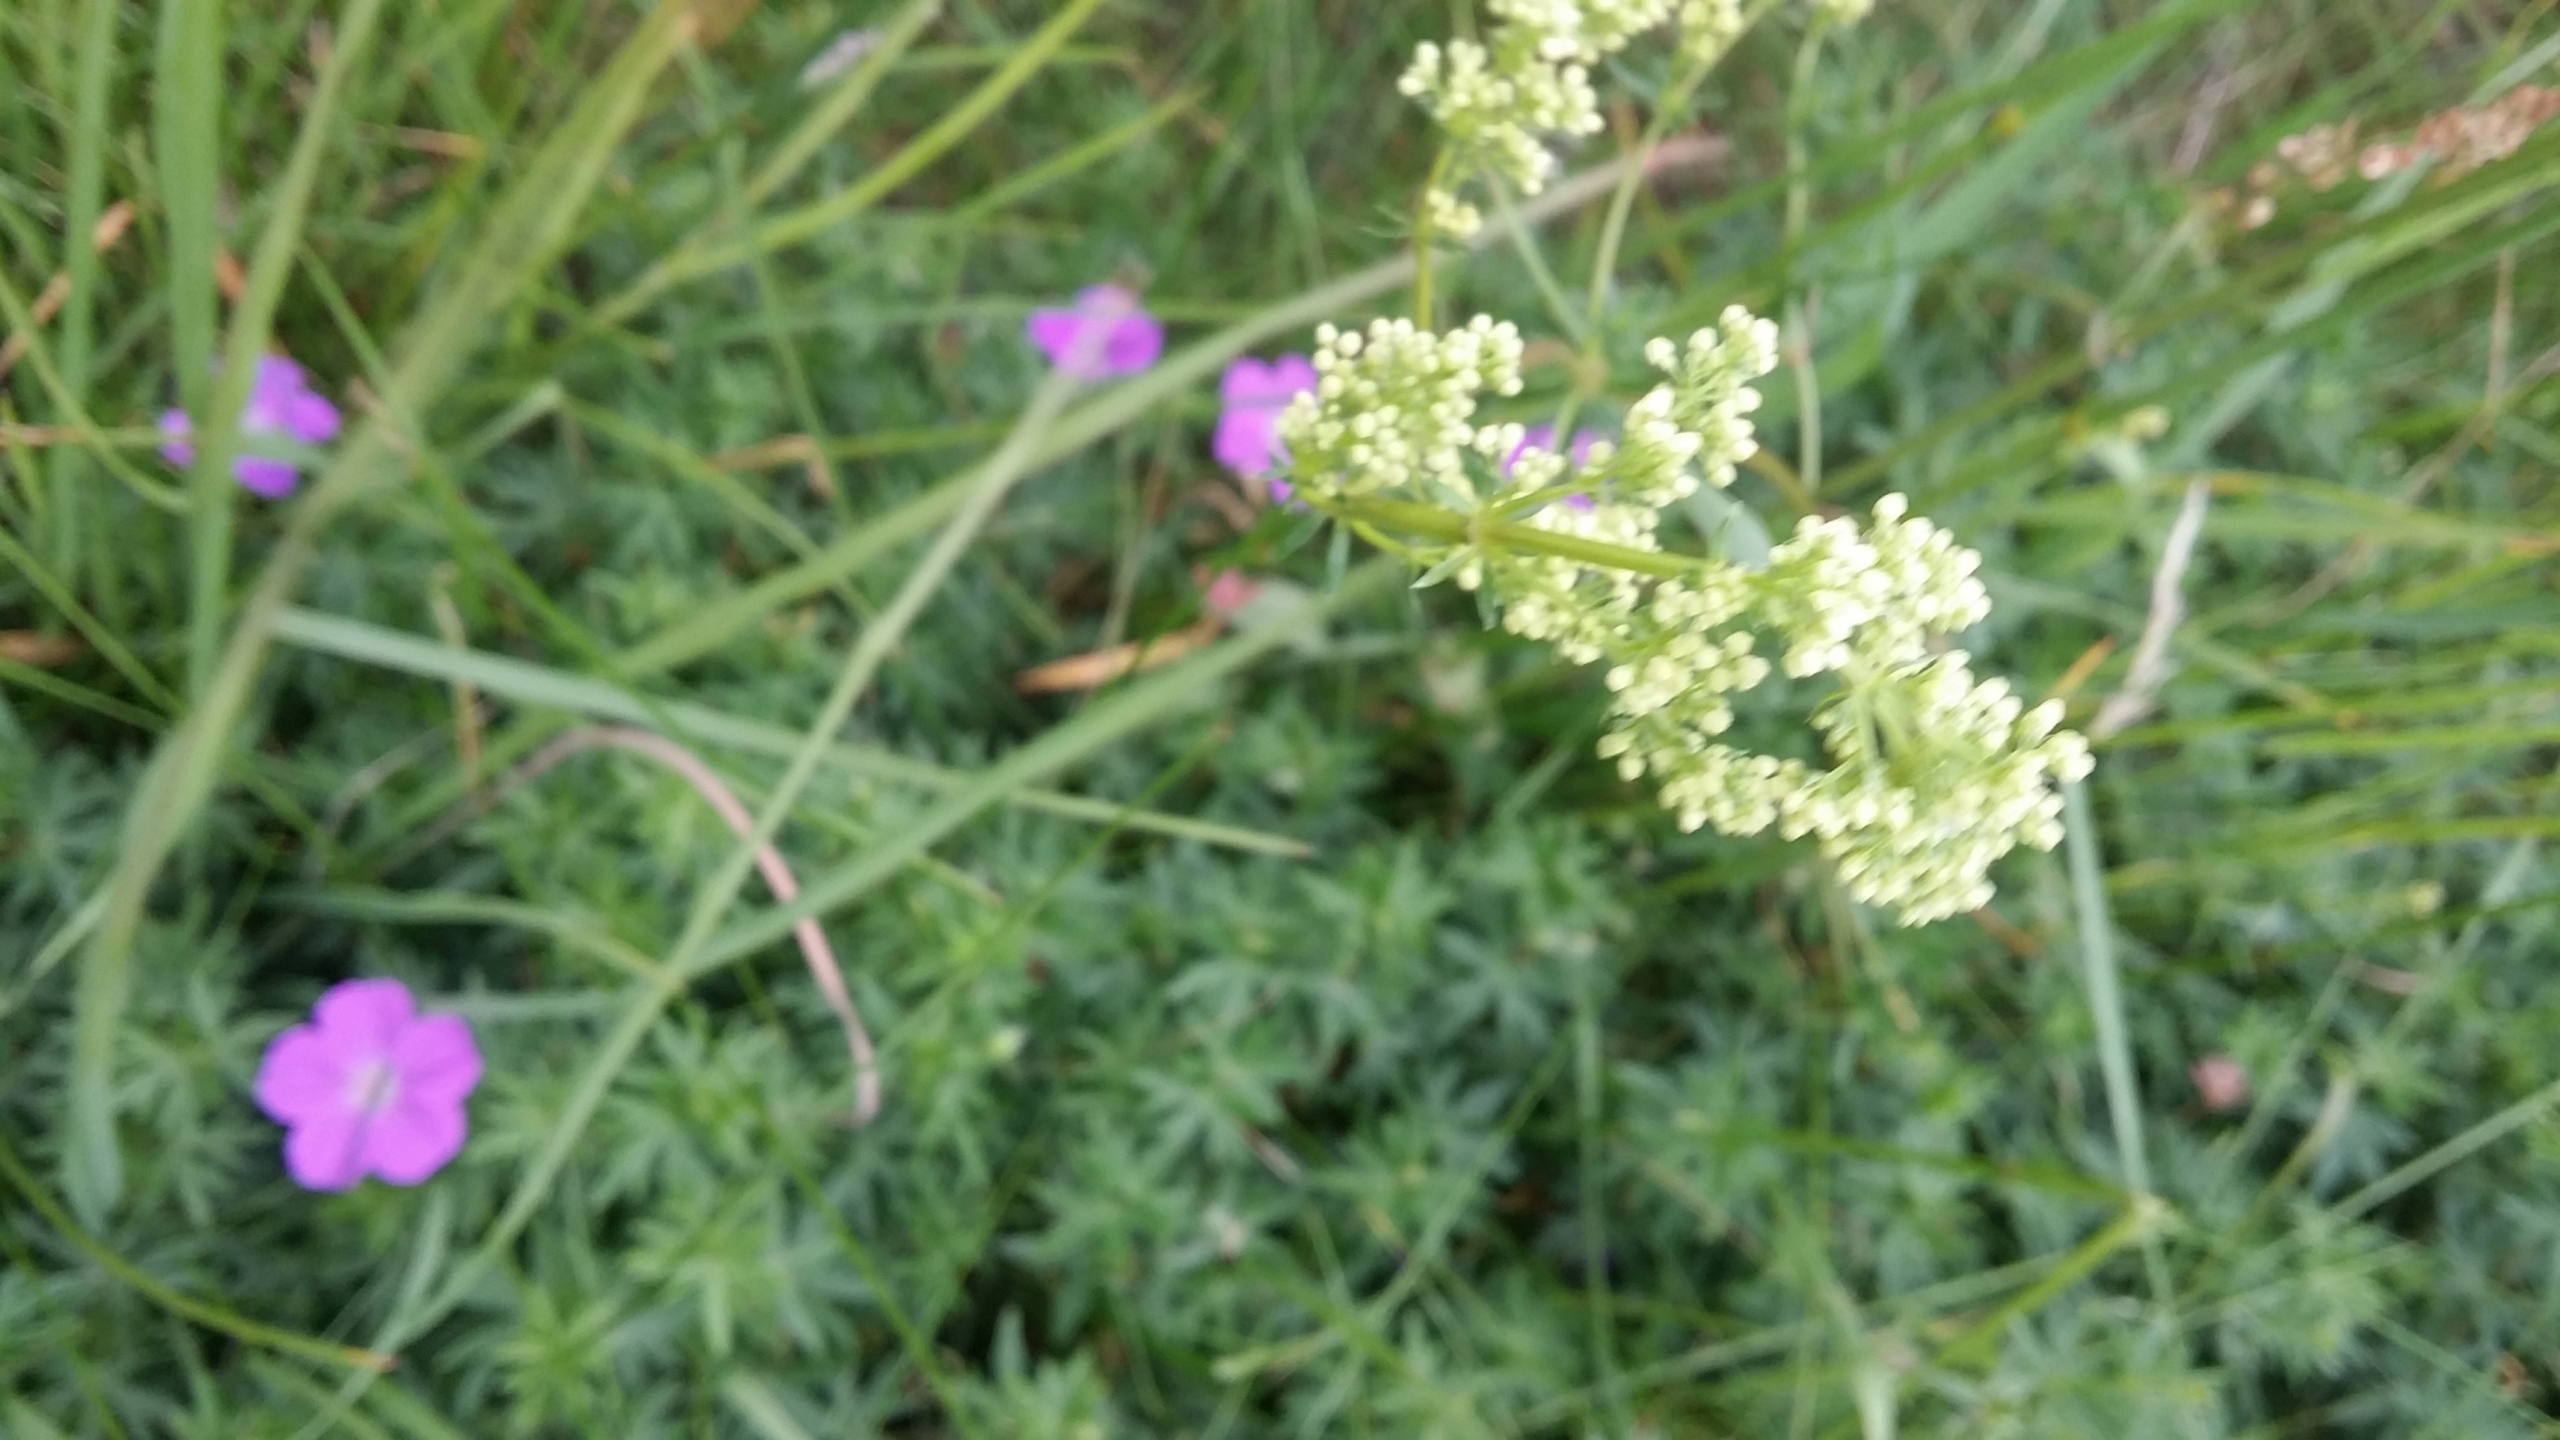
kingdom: Plantae
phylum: Tracheophyta
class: Magnoliopsida
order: Gentianales
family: Rubiaceae
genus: Galium
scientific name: Galium mollugo
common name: Hvid snerre
